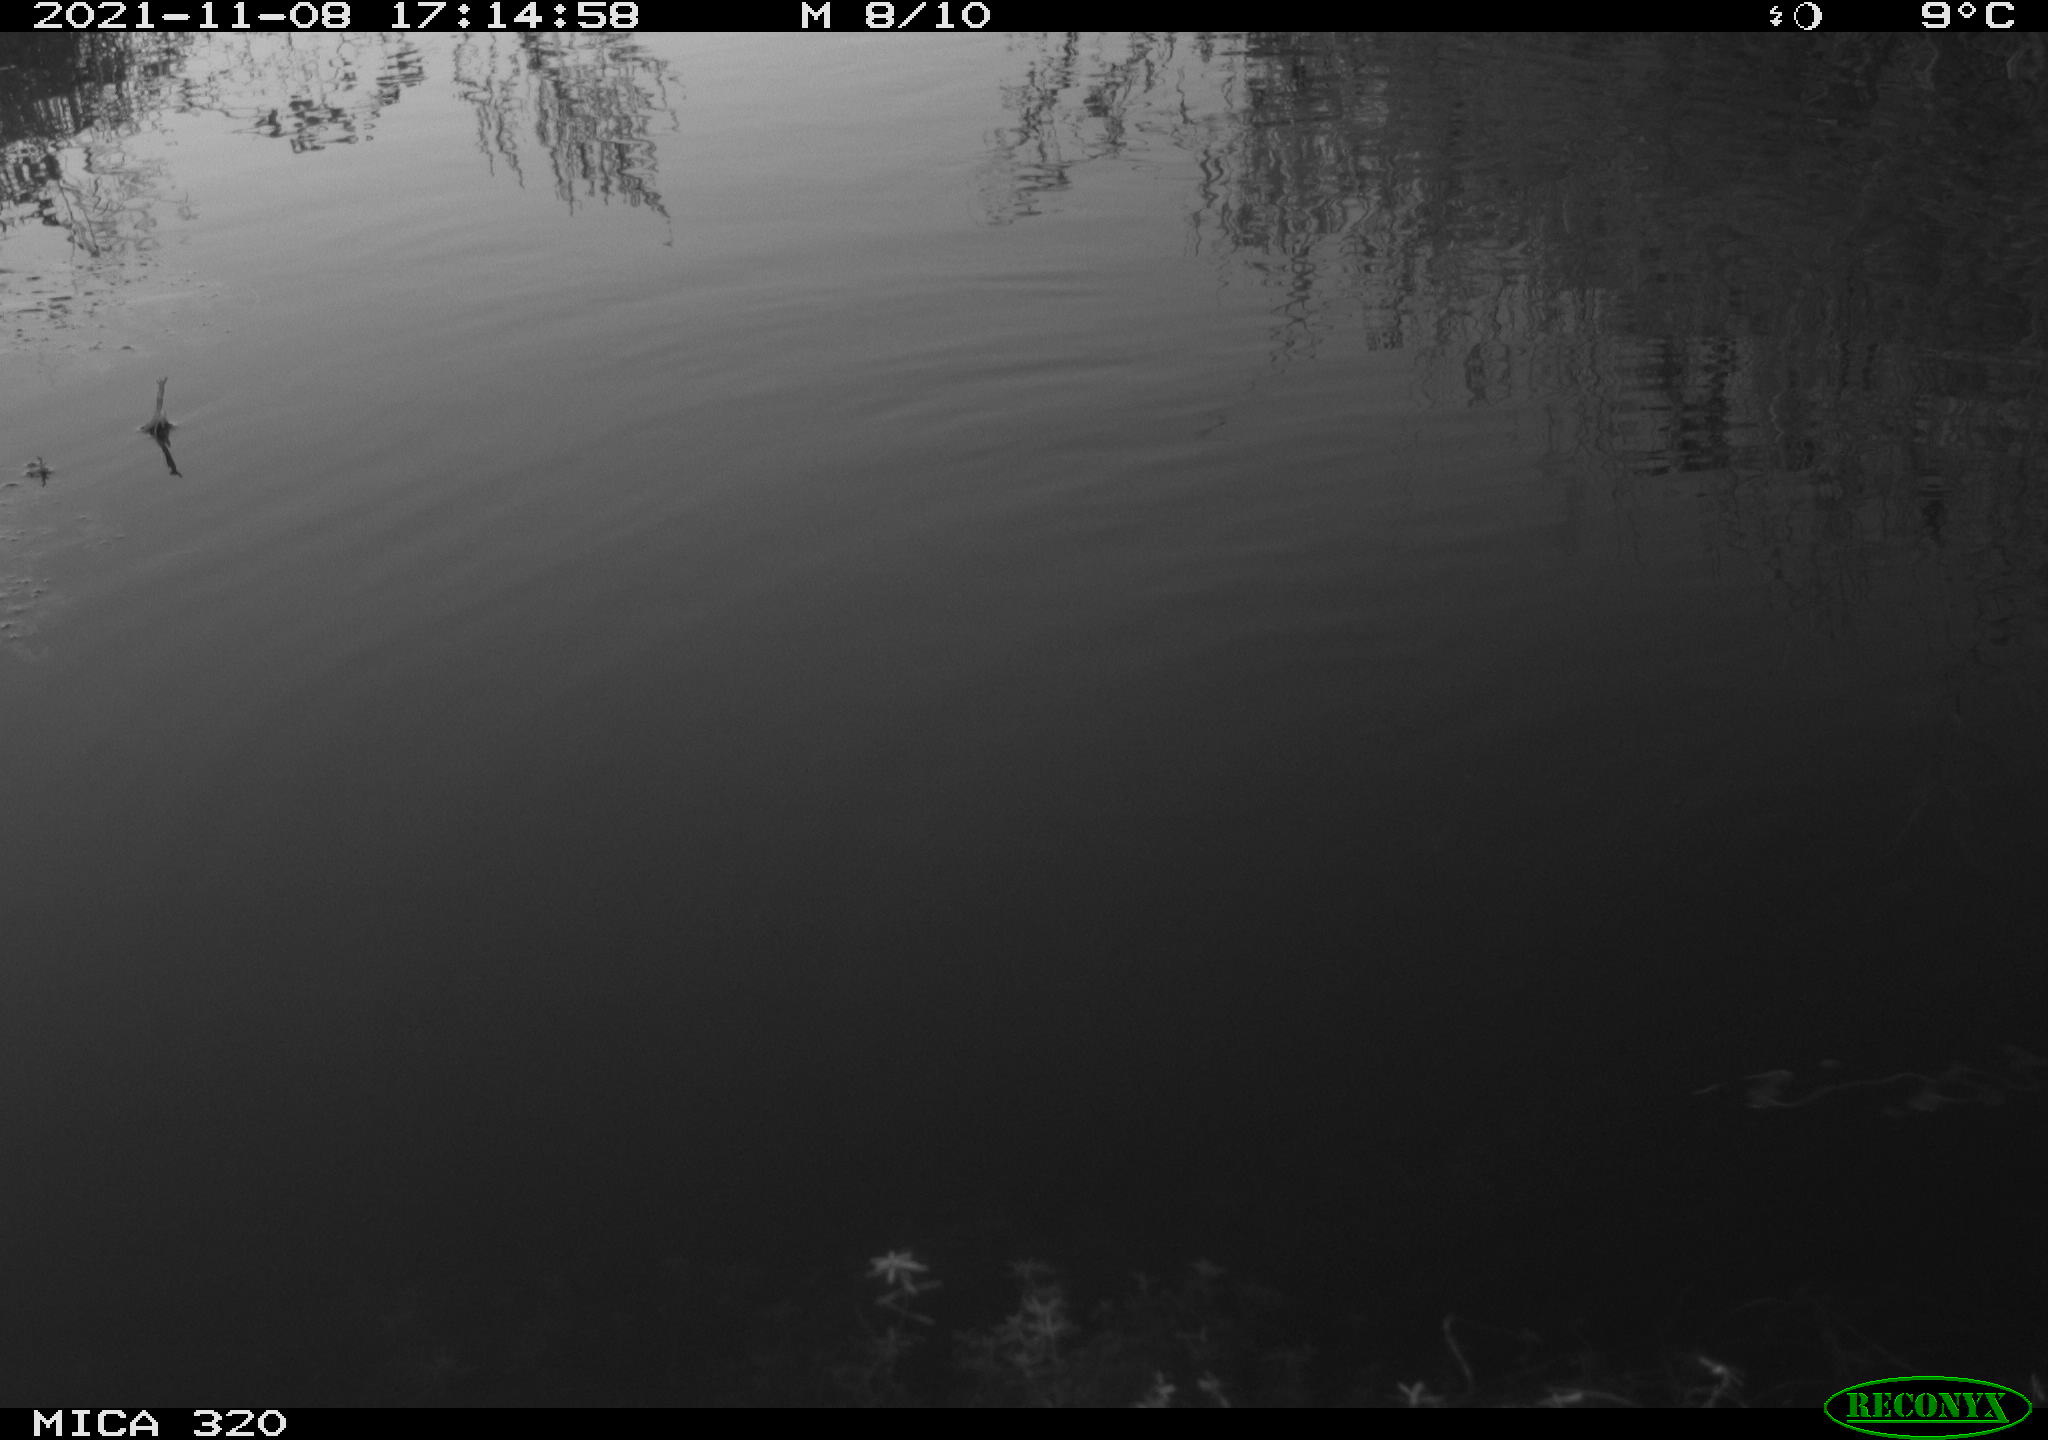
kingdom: Animalia
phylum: Chordata
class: Aves
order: Gruiformes
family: Rallidae
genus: Gallinula
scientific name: Gallinula chloropus
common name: Common moorhen
